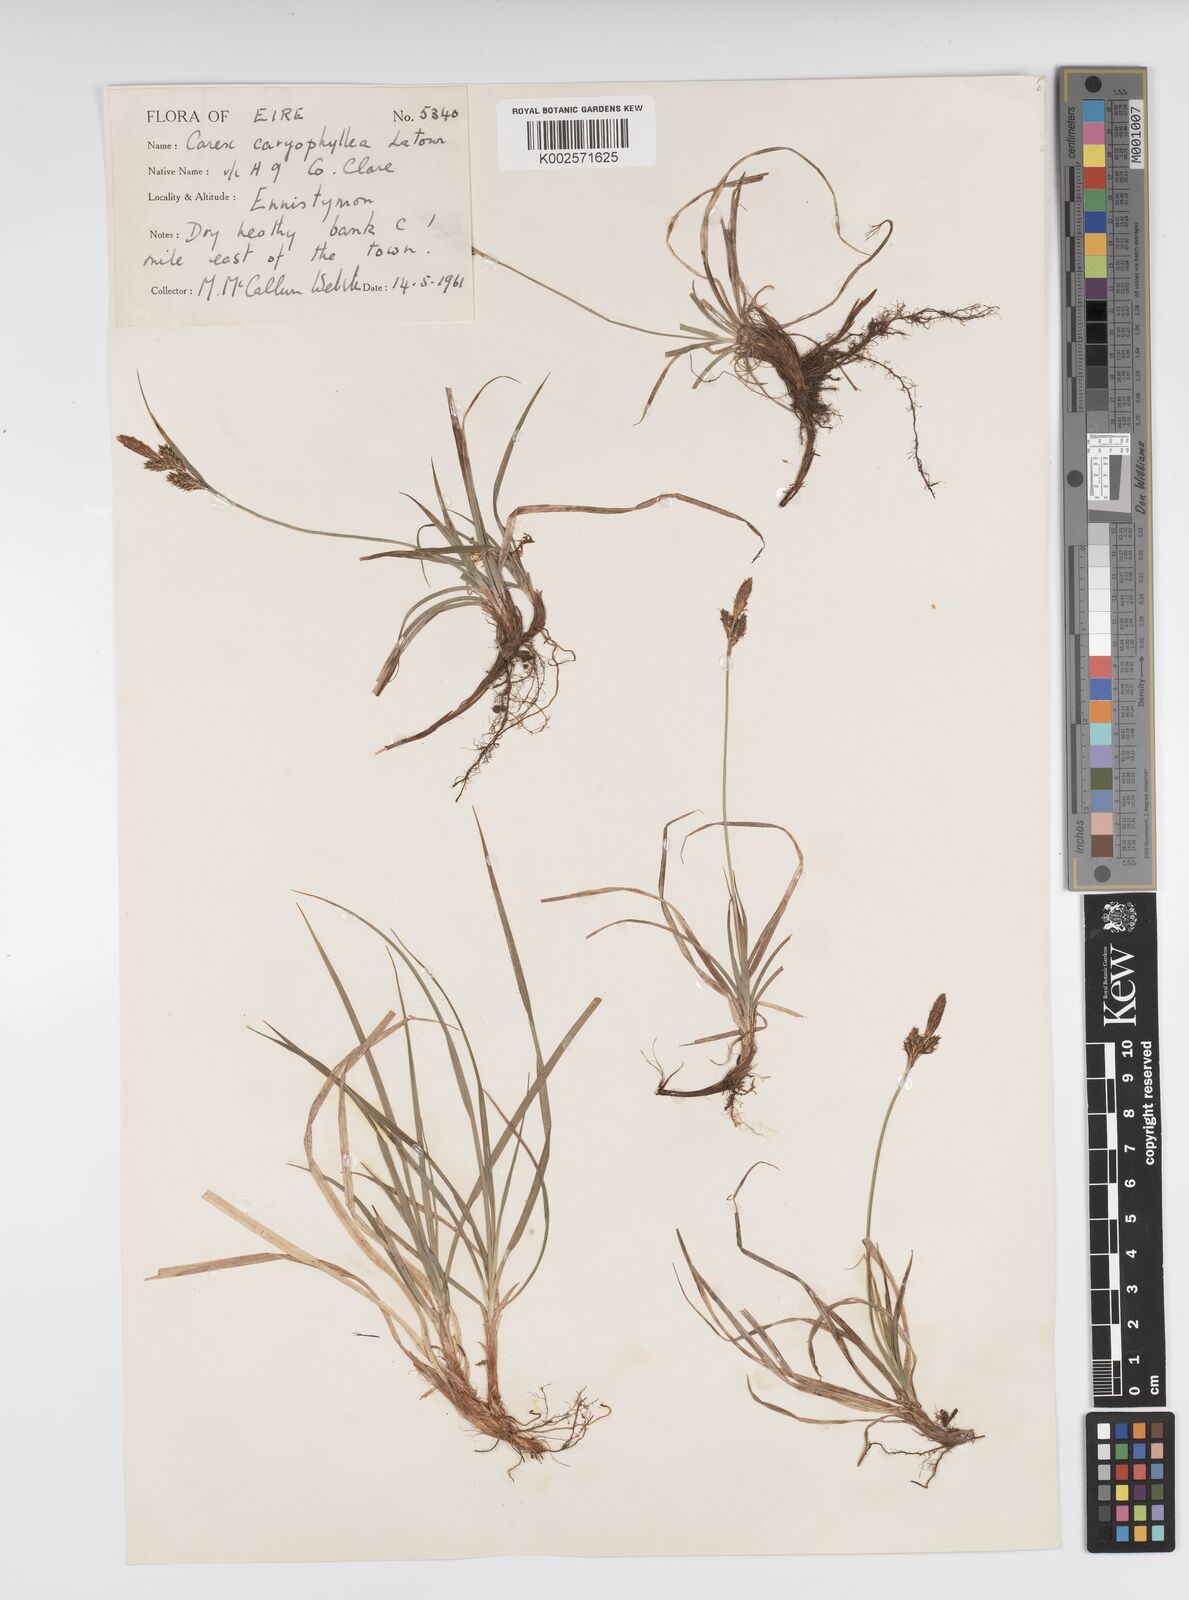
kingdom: Plantae
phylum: Tracheophyta
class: Liliopsida
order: Poales
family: Cyperaceae
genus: Carex
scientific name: Carex caryophyllea
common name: Spring sedge
